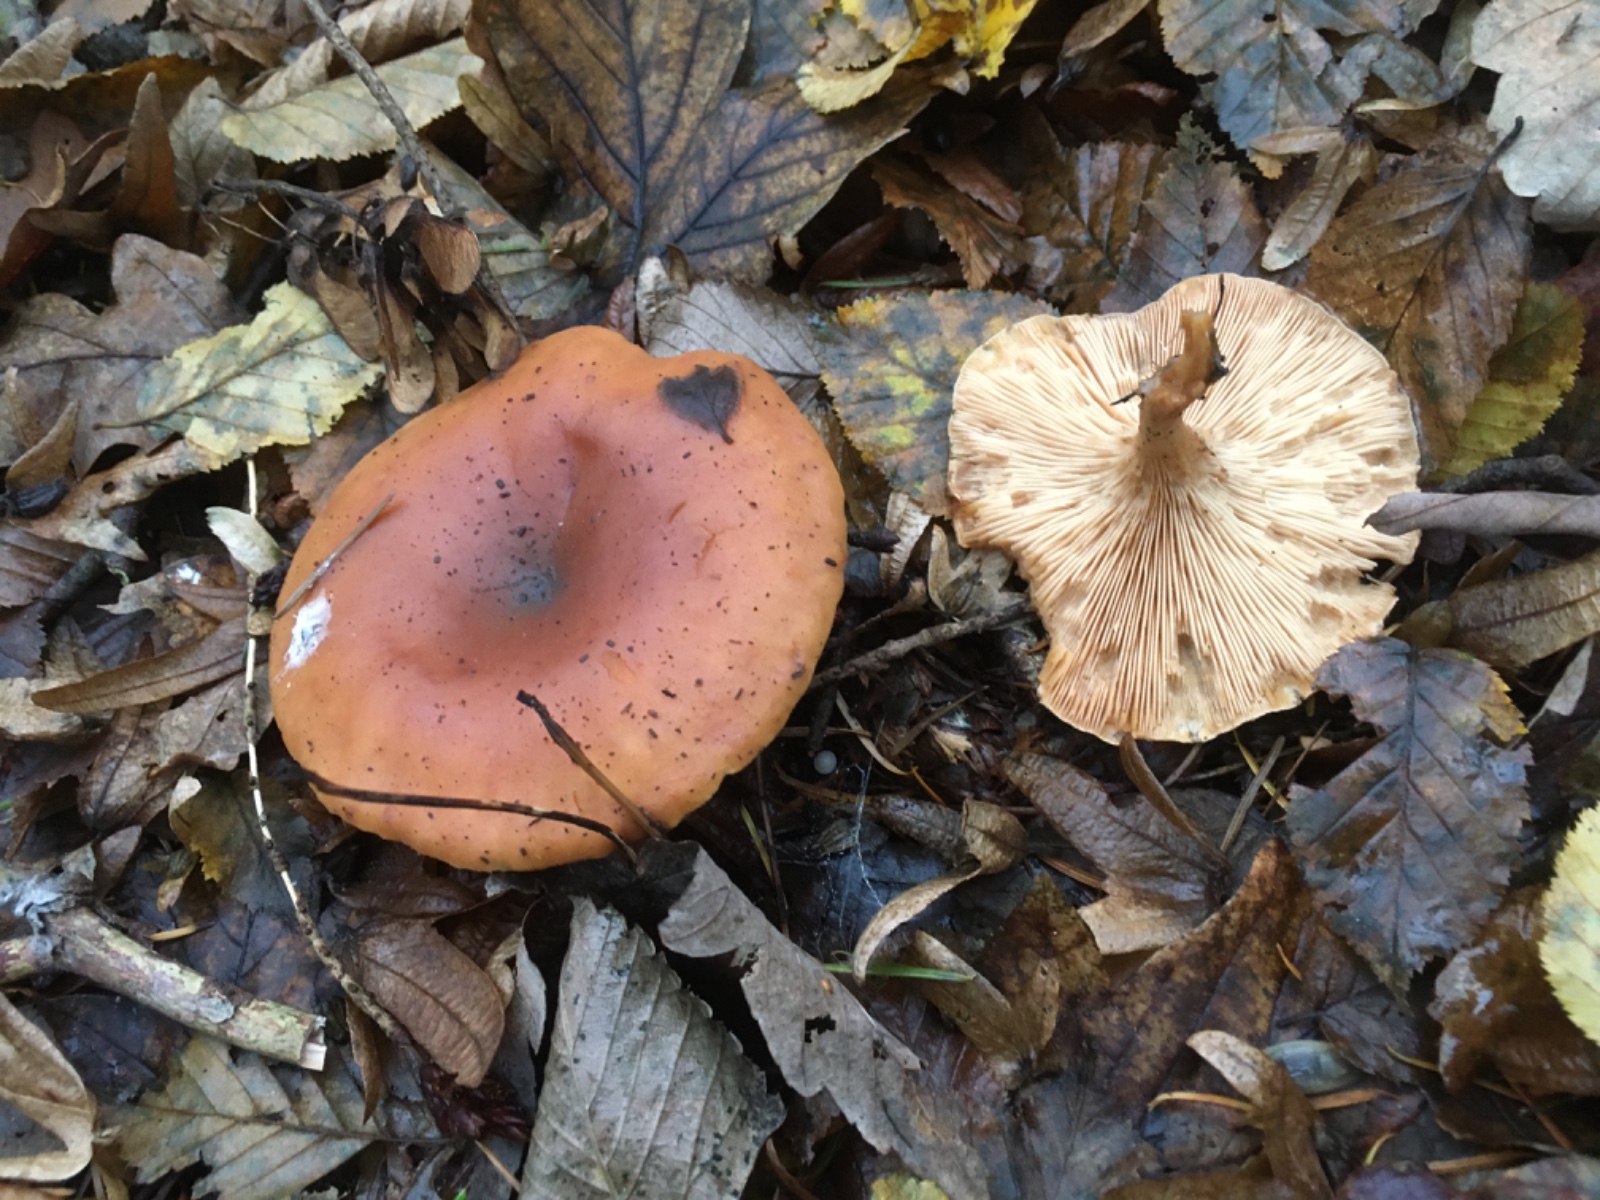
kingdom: Fungi
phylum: Basidiomycota
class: Agaricomycetes
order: Agaricales
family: Tricholomataceae
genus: Paralepista
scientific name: Paralepista flaccida
